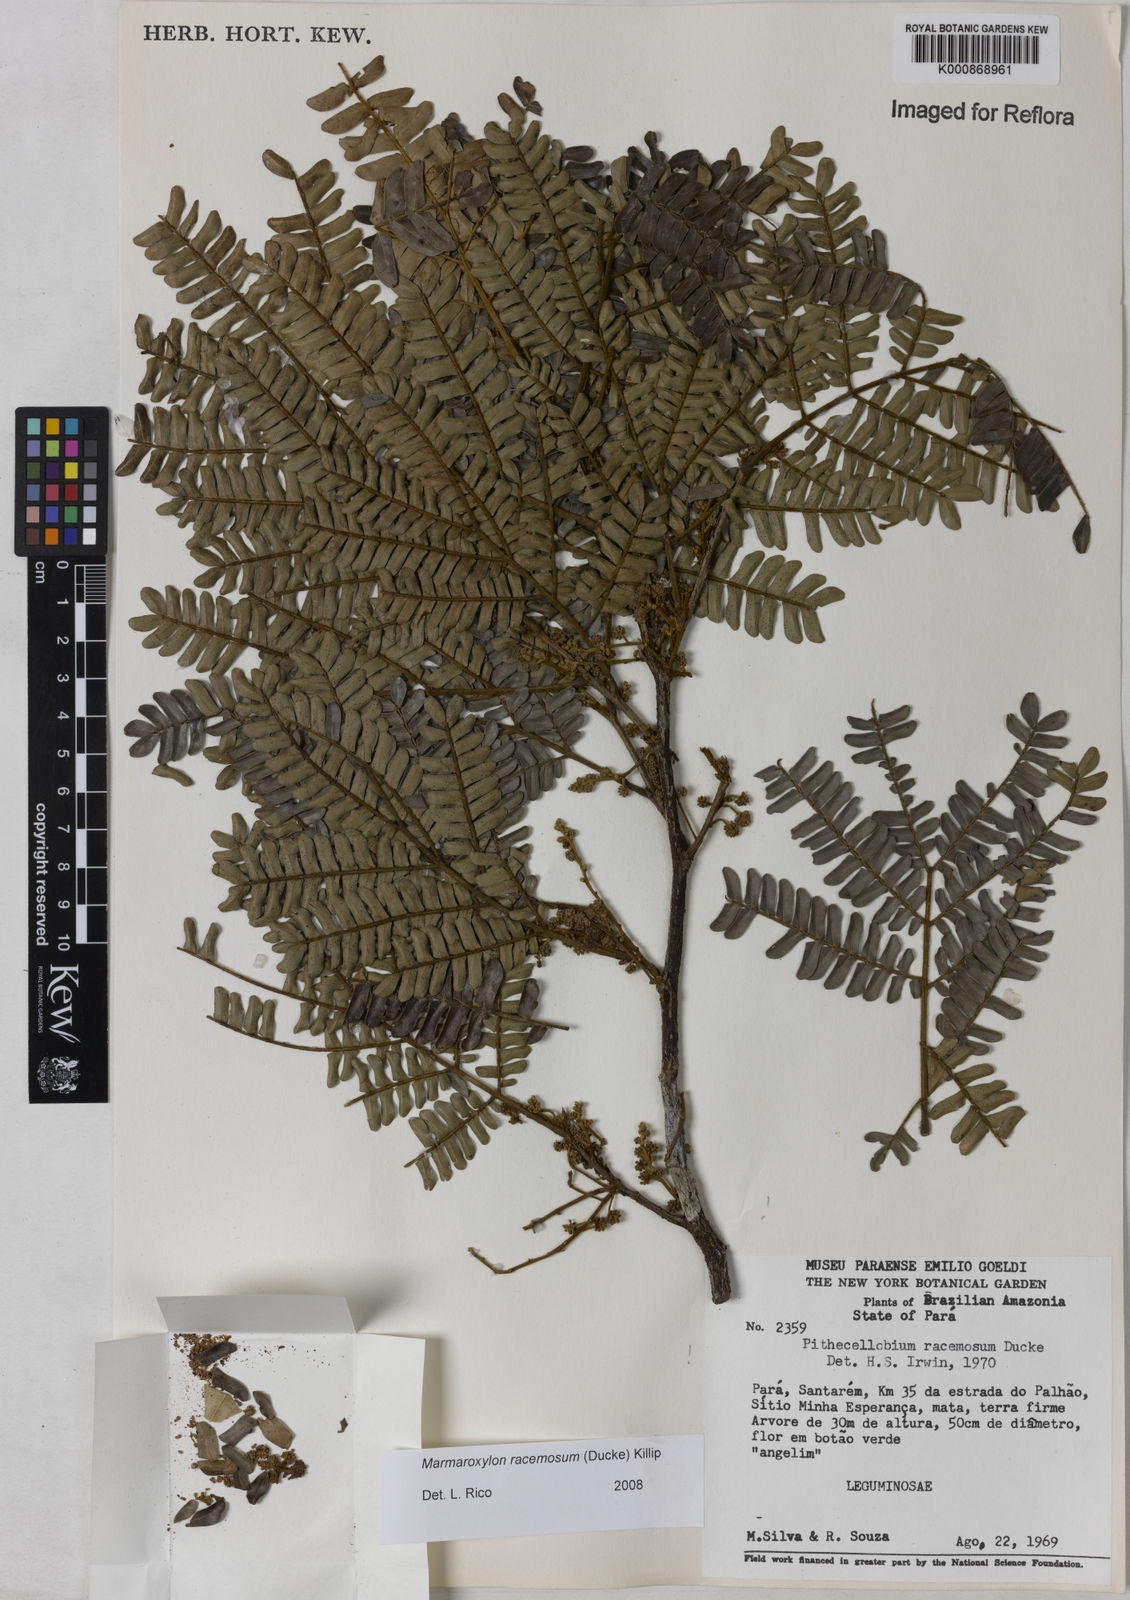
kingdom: Plantae
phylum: Tracheophyta
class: Magnoliopsida
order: Fabales
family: Fabaceae
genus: Zygia
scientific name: Zygia racemosa
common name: Marblewood
